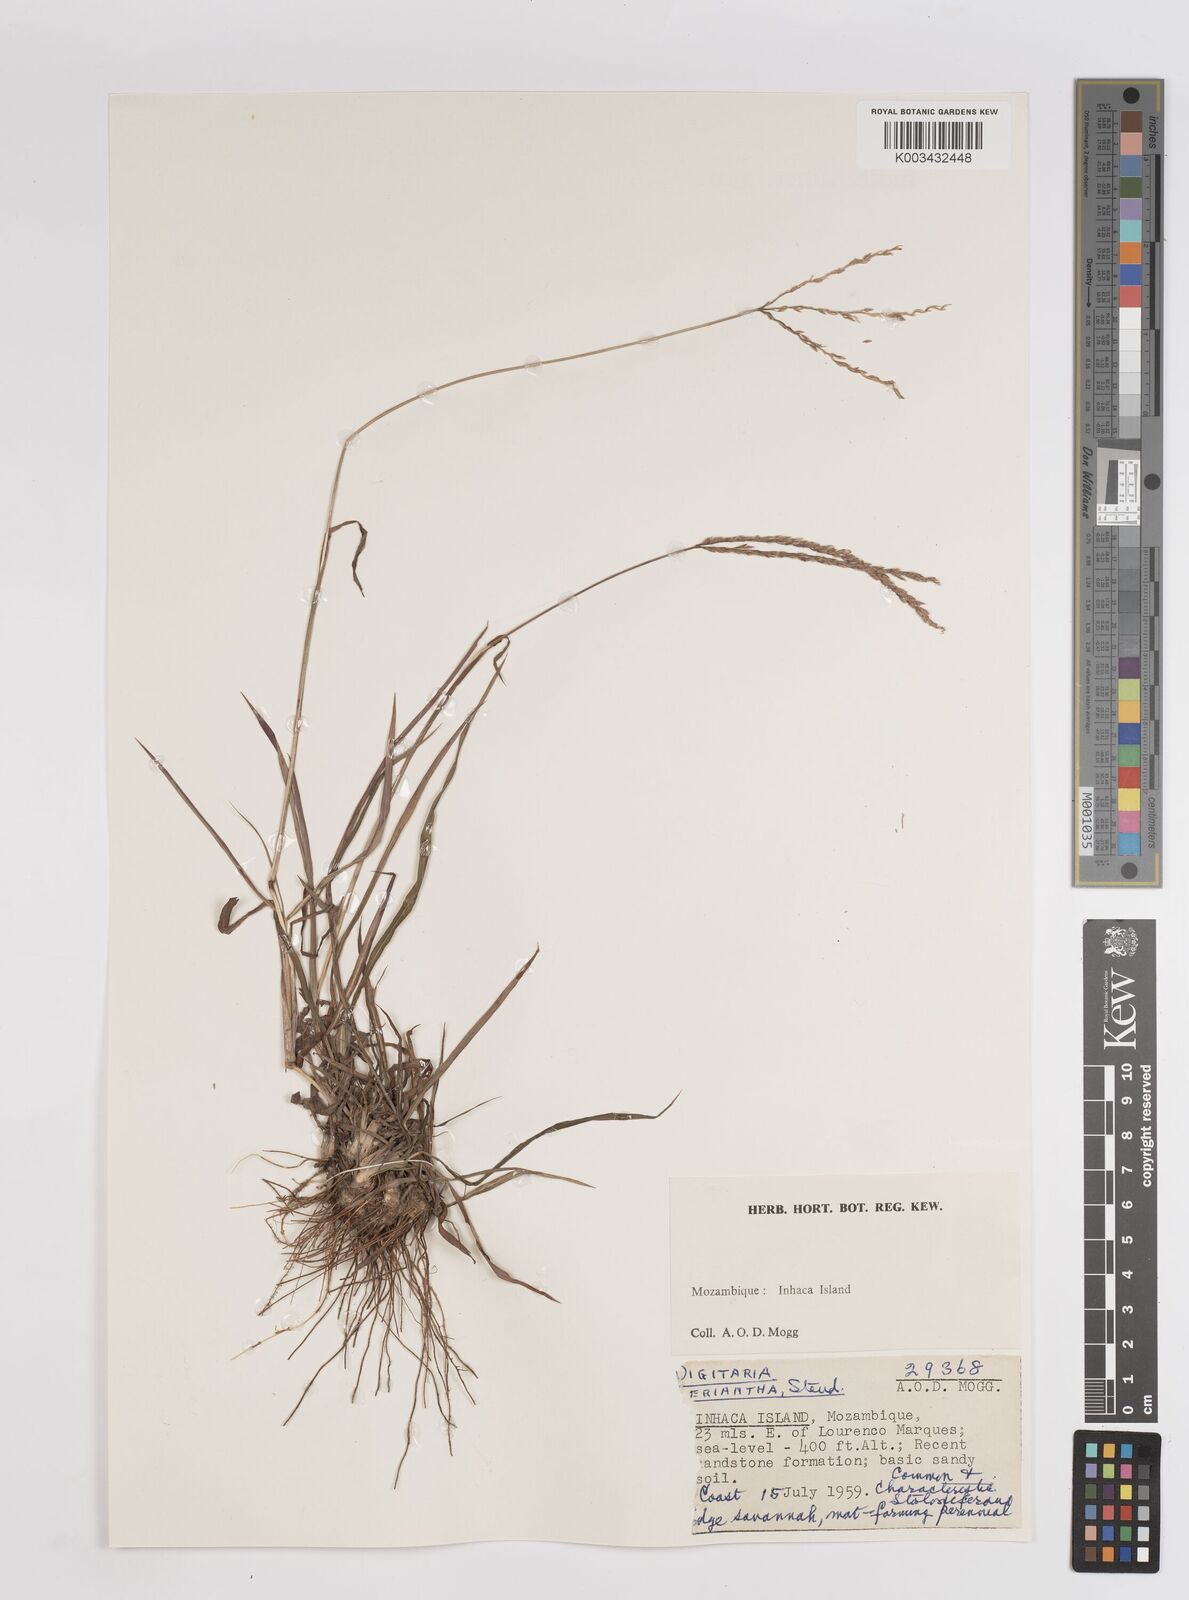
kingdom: Plantae
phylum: Tracheophyta
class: Liliopsida
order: Poales
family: Poaceae
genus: Digitaria
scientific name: Digitaria eriantha
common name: Digitgrass
